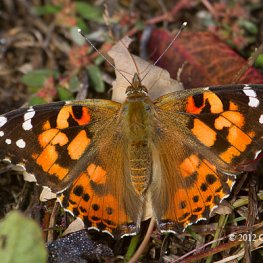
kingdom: Animalia
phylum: Arthropoda
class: Insecta
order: Lepidoptera
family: Nymphalidae
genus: Vanessa
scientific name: Vanessa cardui
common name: Painted Lady
